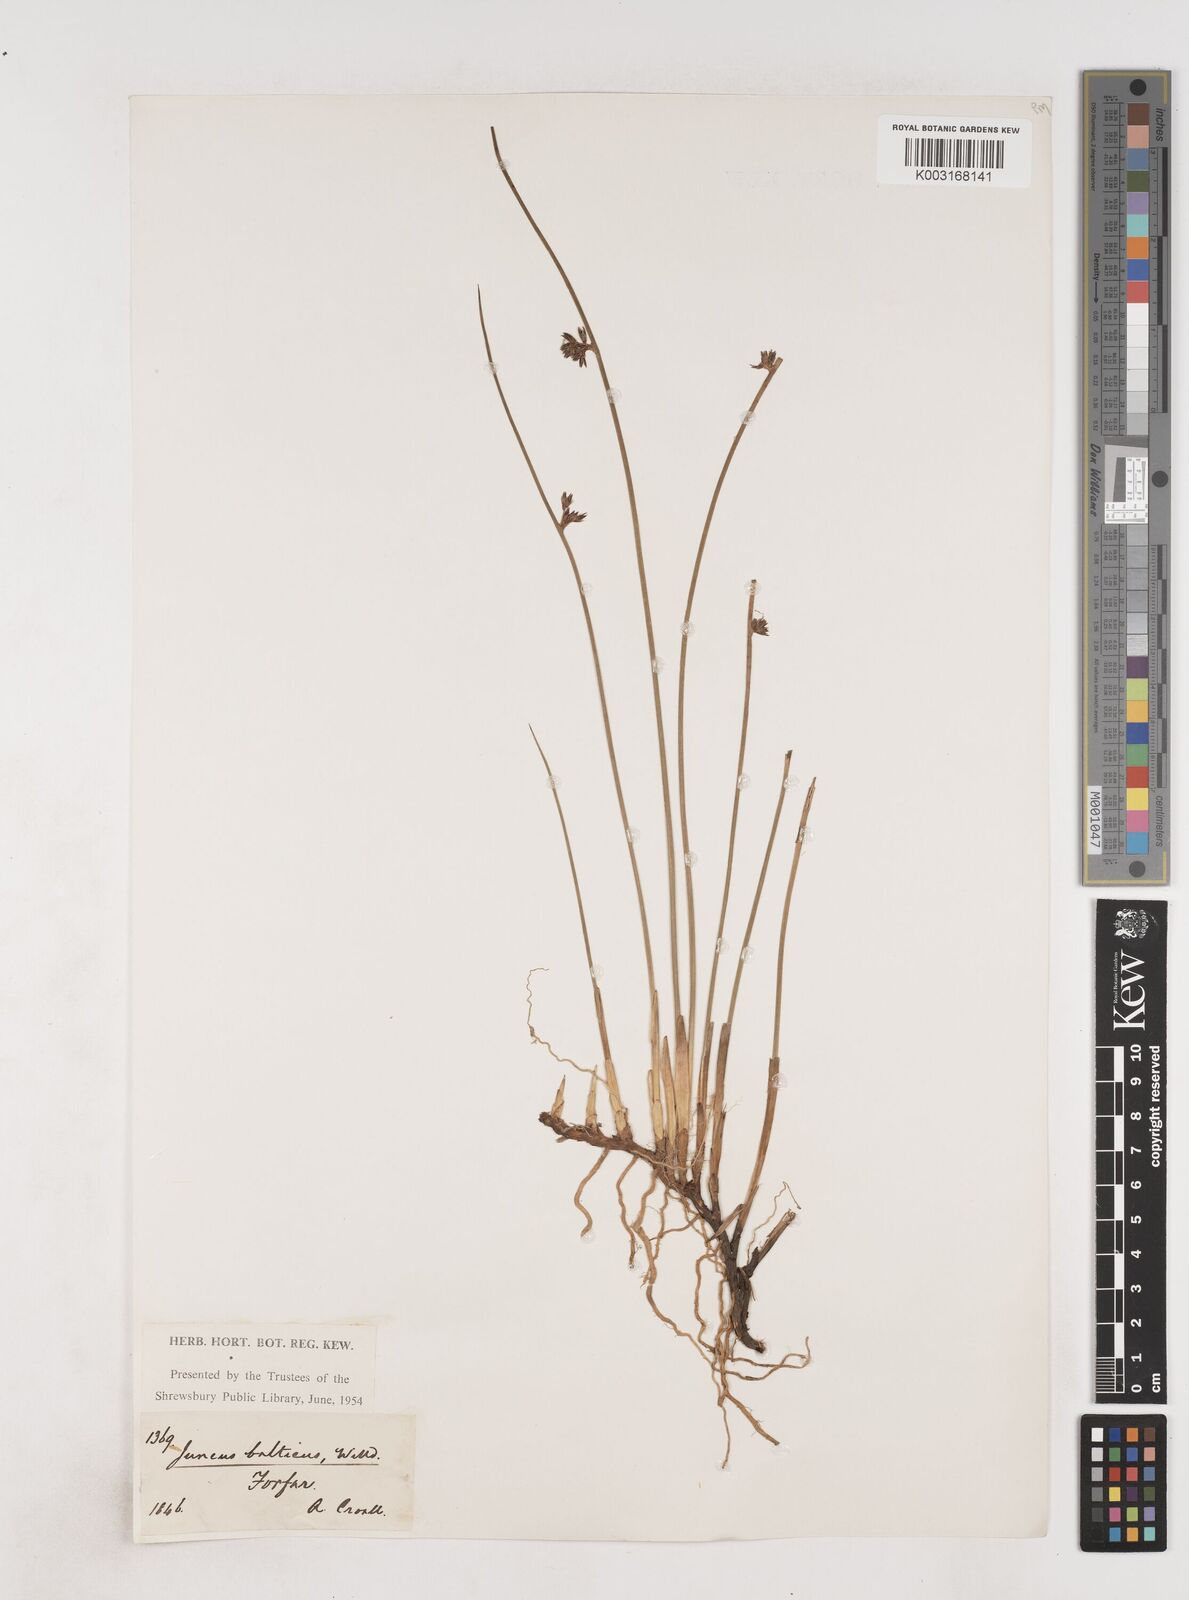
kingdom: Plantae
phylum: Tracheophyta
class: Liliopsida
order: Poales
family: Juncaceae
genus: Juncus
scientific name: Juncus balticus
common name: Baltic rush
